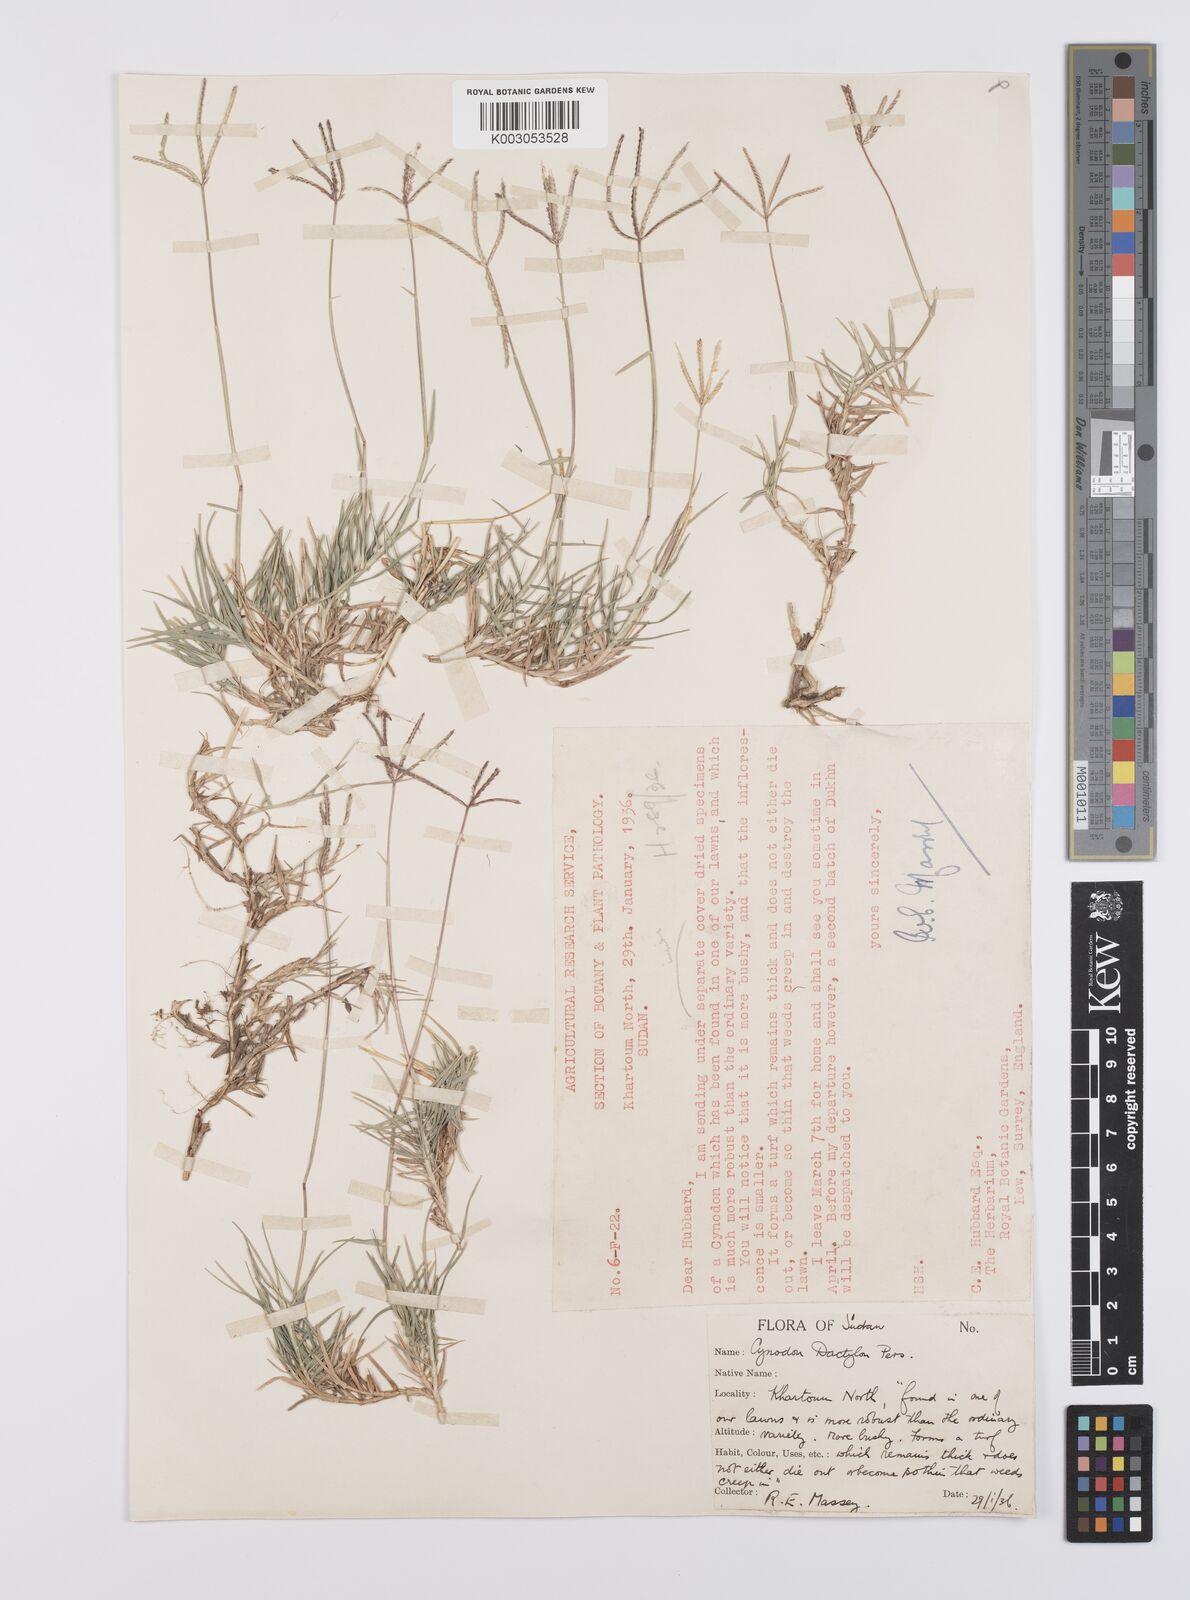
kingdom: Plantae
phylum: Tracheophyta
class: Liliopsida
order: Poales
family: Poaceae
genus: Cynodon
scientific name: Cynodon dactylon
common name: Bermuda grass
